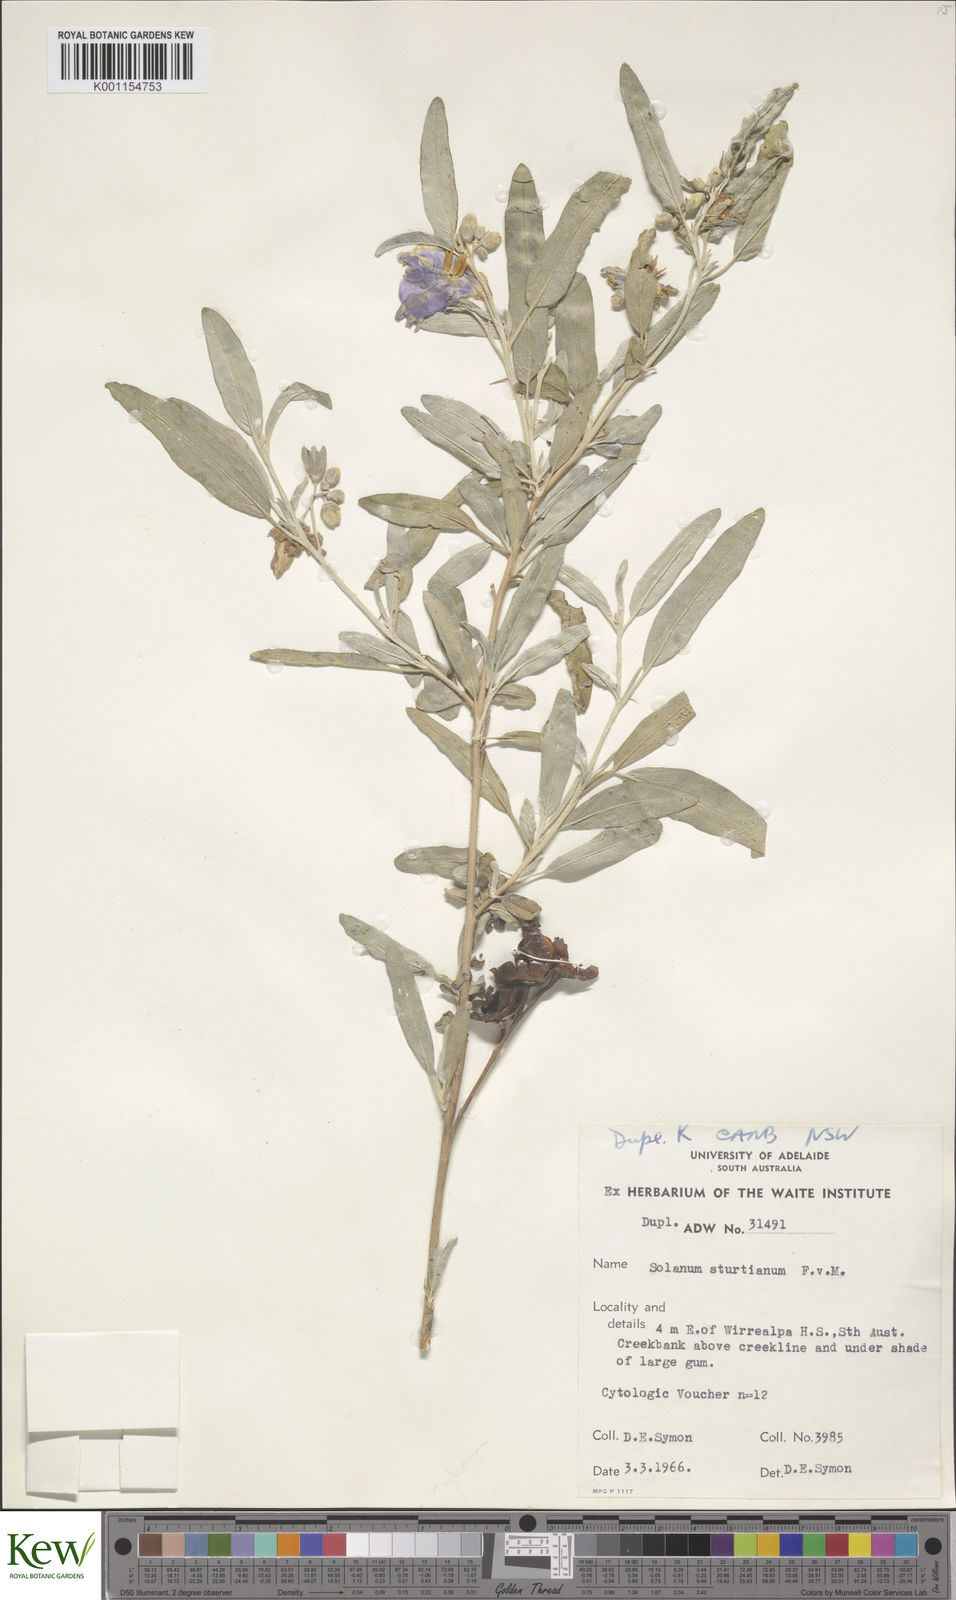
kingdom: Plantae
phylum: Tracheophyta
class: Magnoliopsida
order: Solanales
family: Solanaceae
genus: Solanum
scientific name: Solanum sturtianum
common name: Thargomindah nightshade
